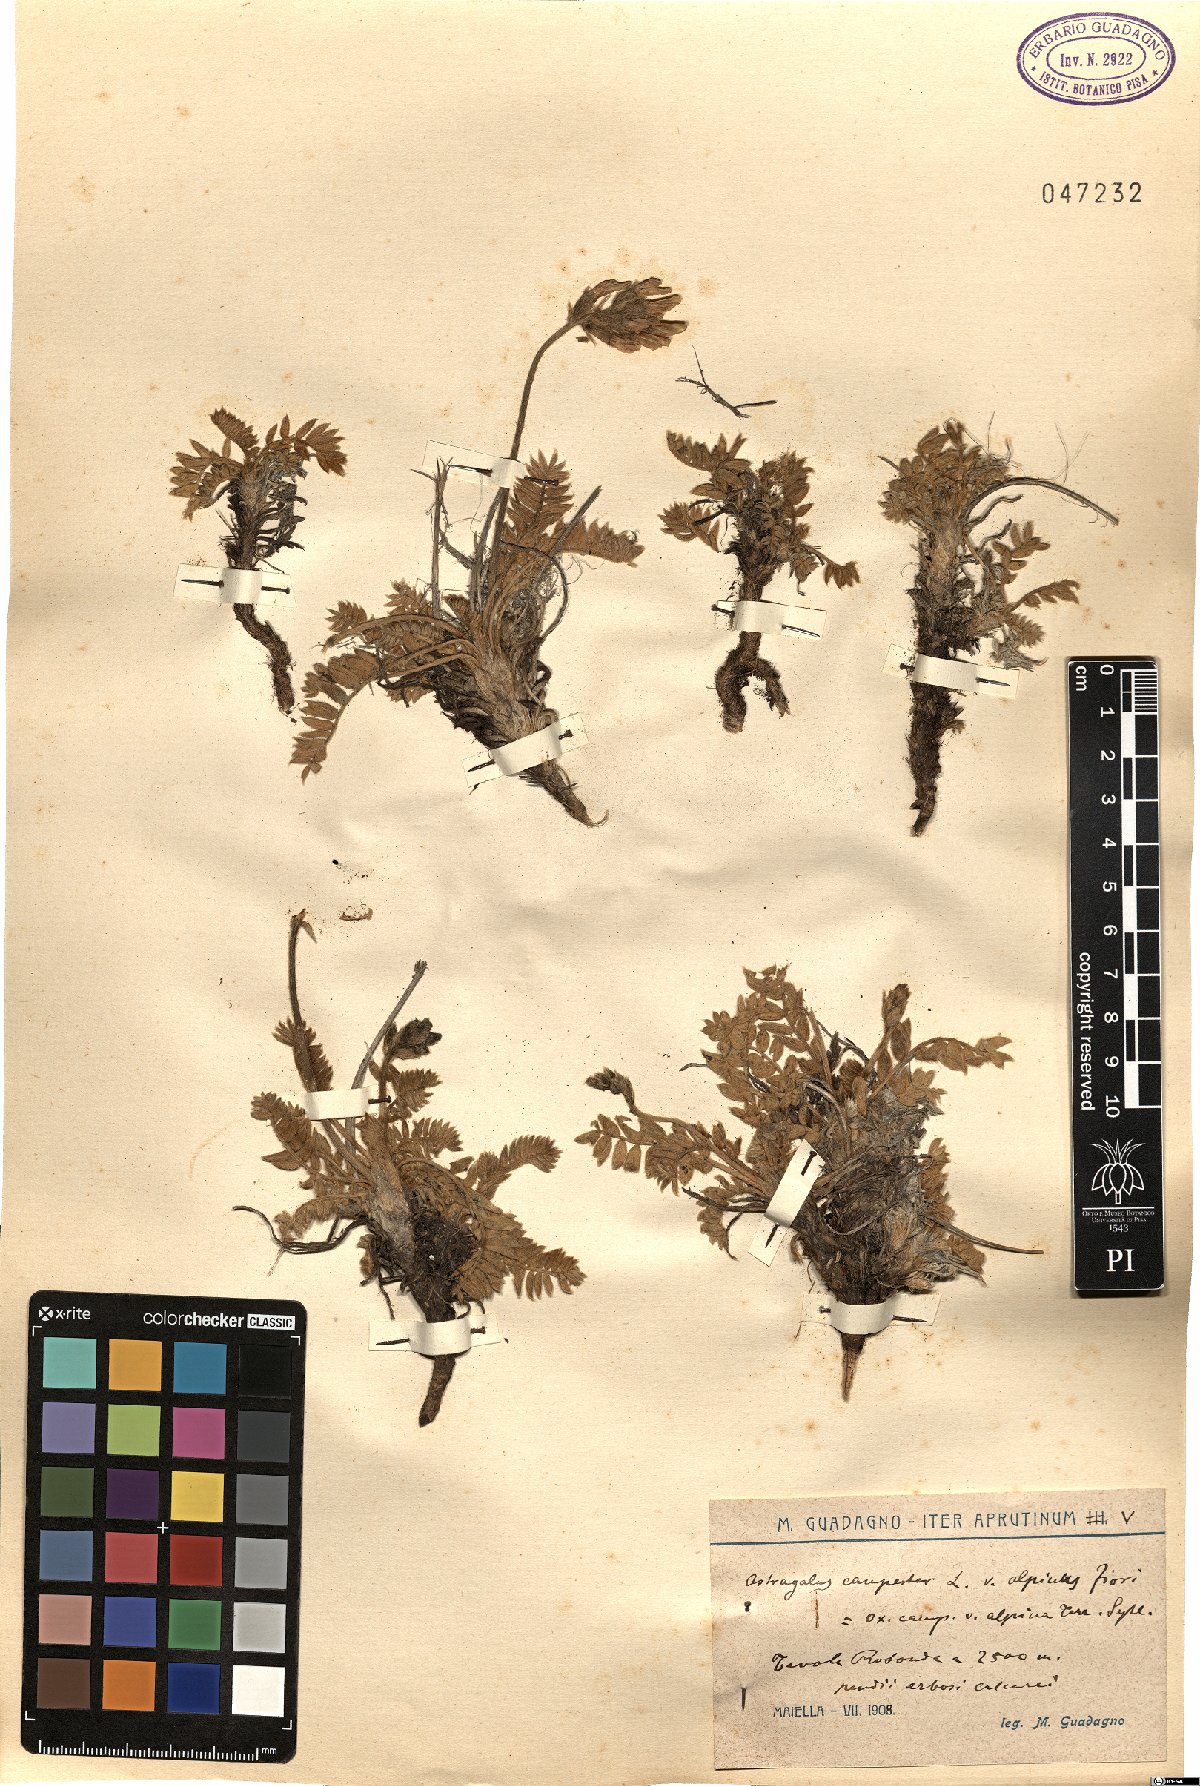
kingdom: Plantae
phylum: Tracheophyta
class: Magnoliopsida
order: Fabales
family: Fabaceae
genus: Oxytropis
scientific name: Oxytropis campestris
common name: Field locoweed
